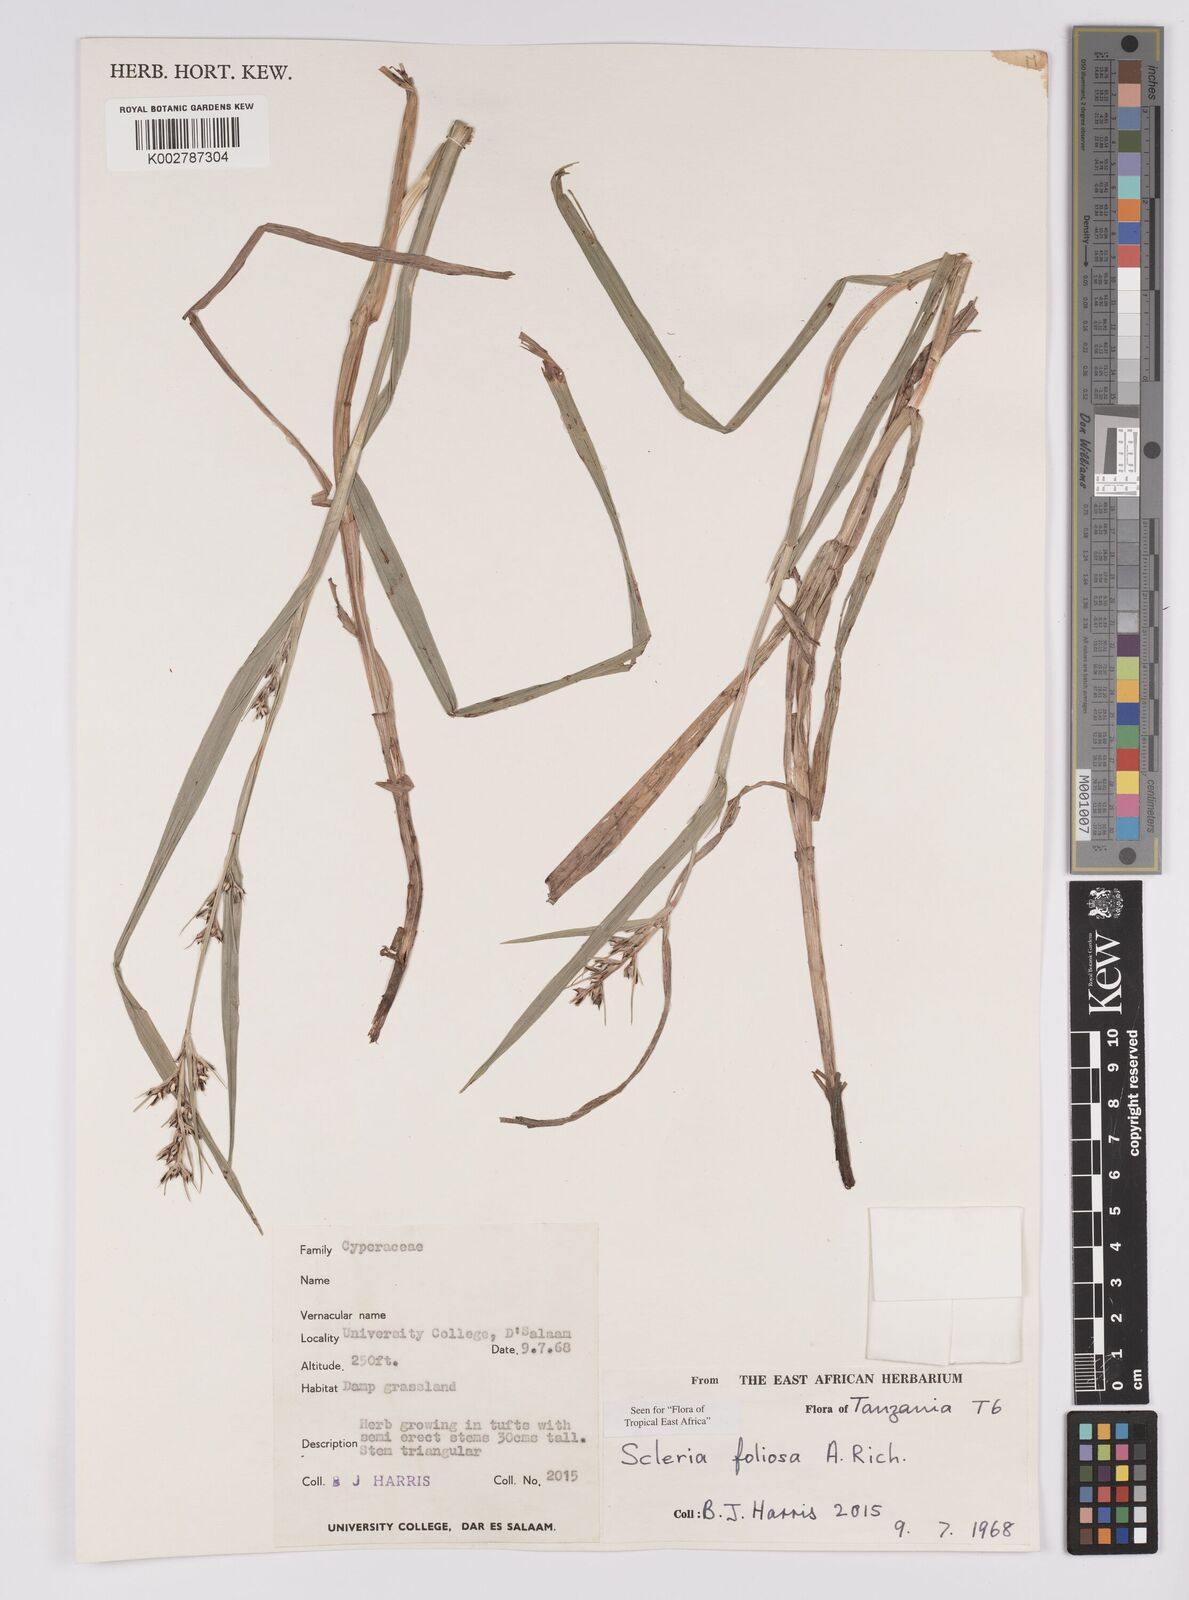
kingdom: Plantae
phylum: Tracheophyta
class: Liliopsida
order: Poales
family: Cyperaceae
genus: Scleria
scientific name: Scleria foliosa
